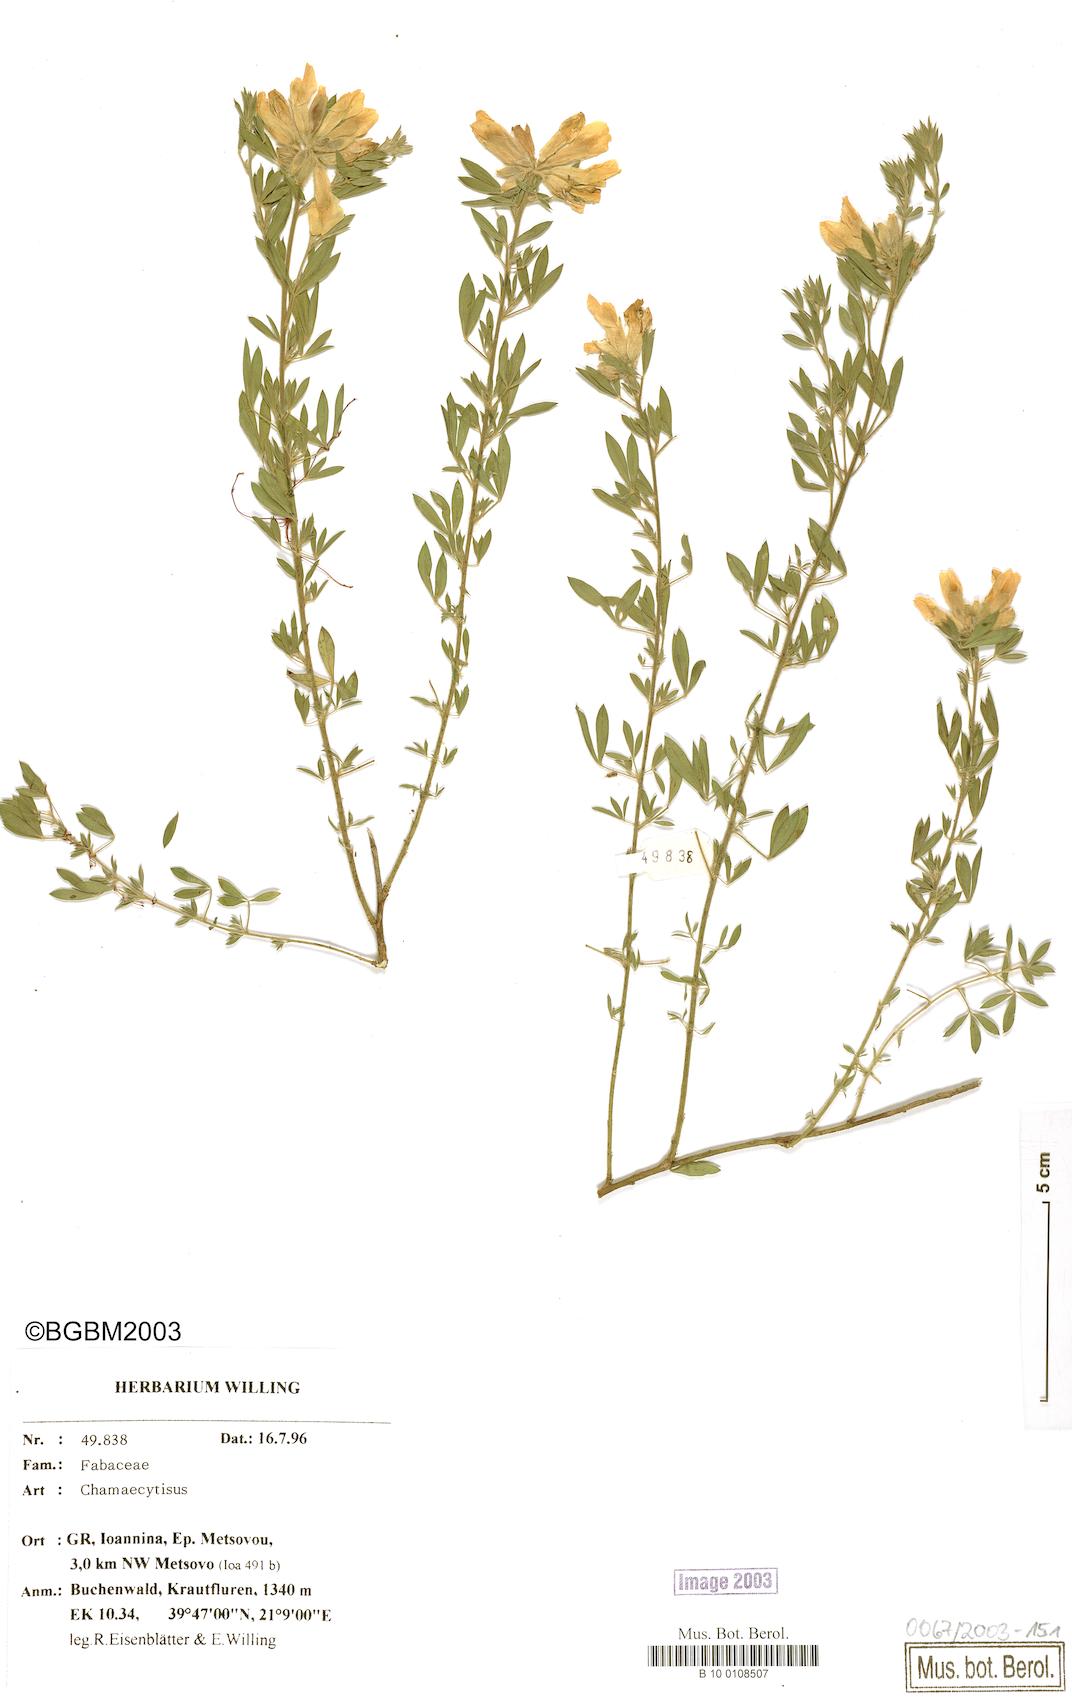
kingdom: Plantae
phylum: Tracheophyta
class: Magnoliopsida
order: Fabales
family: Fabaceae
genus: Chamaecytisus
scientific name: Chamaecytisus
